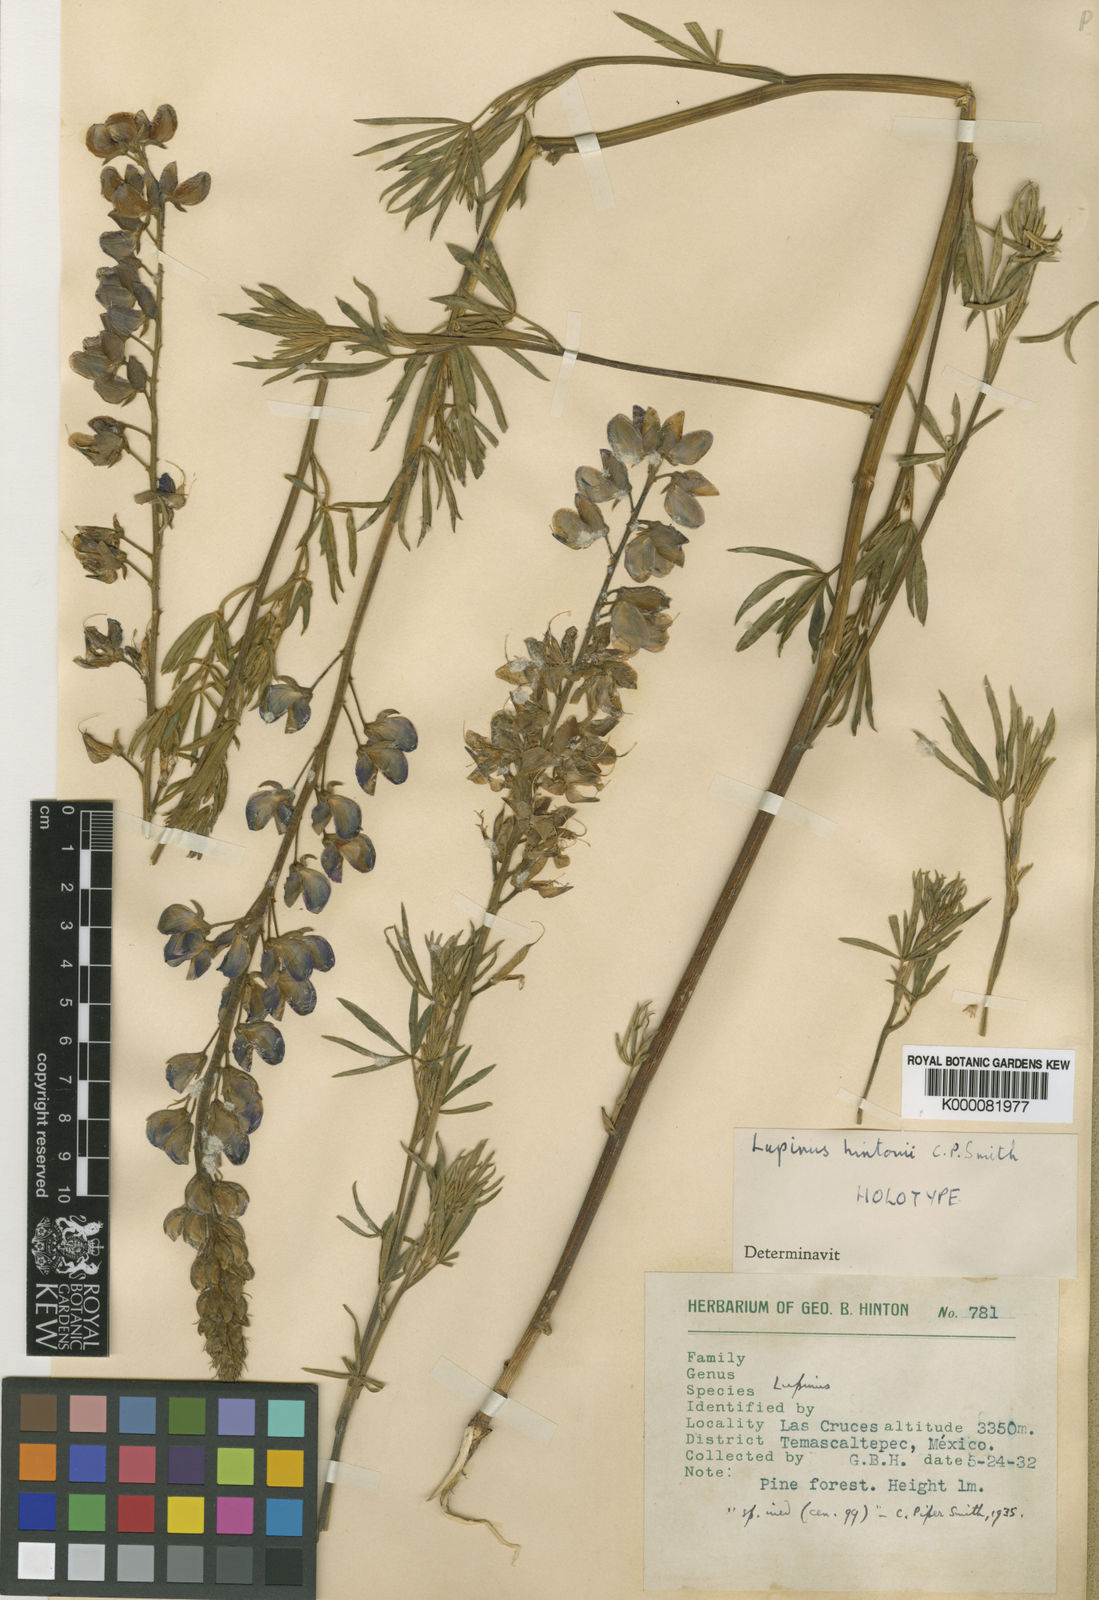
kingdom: Plantae
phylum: Tracheophyta
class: Magnoliopsida
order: Fabales
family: Fabaceae
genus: Lupinus
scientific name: Lupinus hintonii
